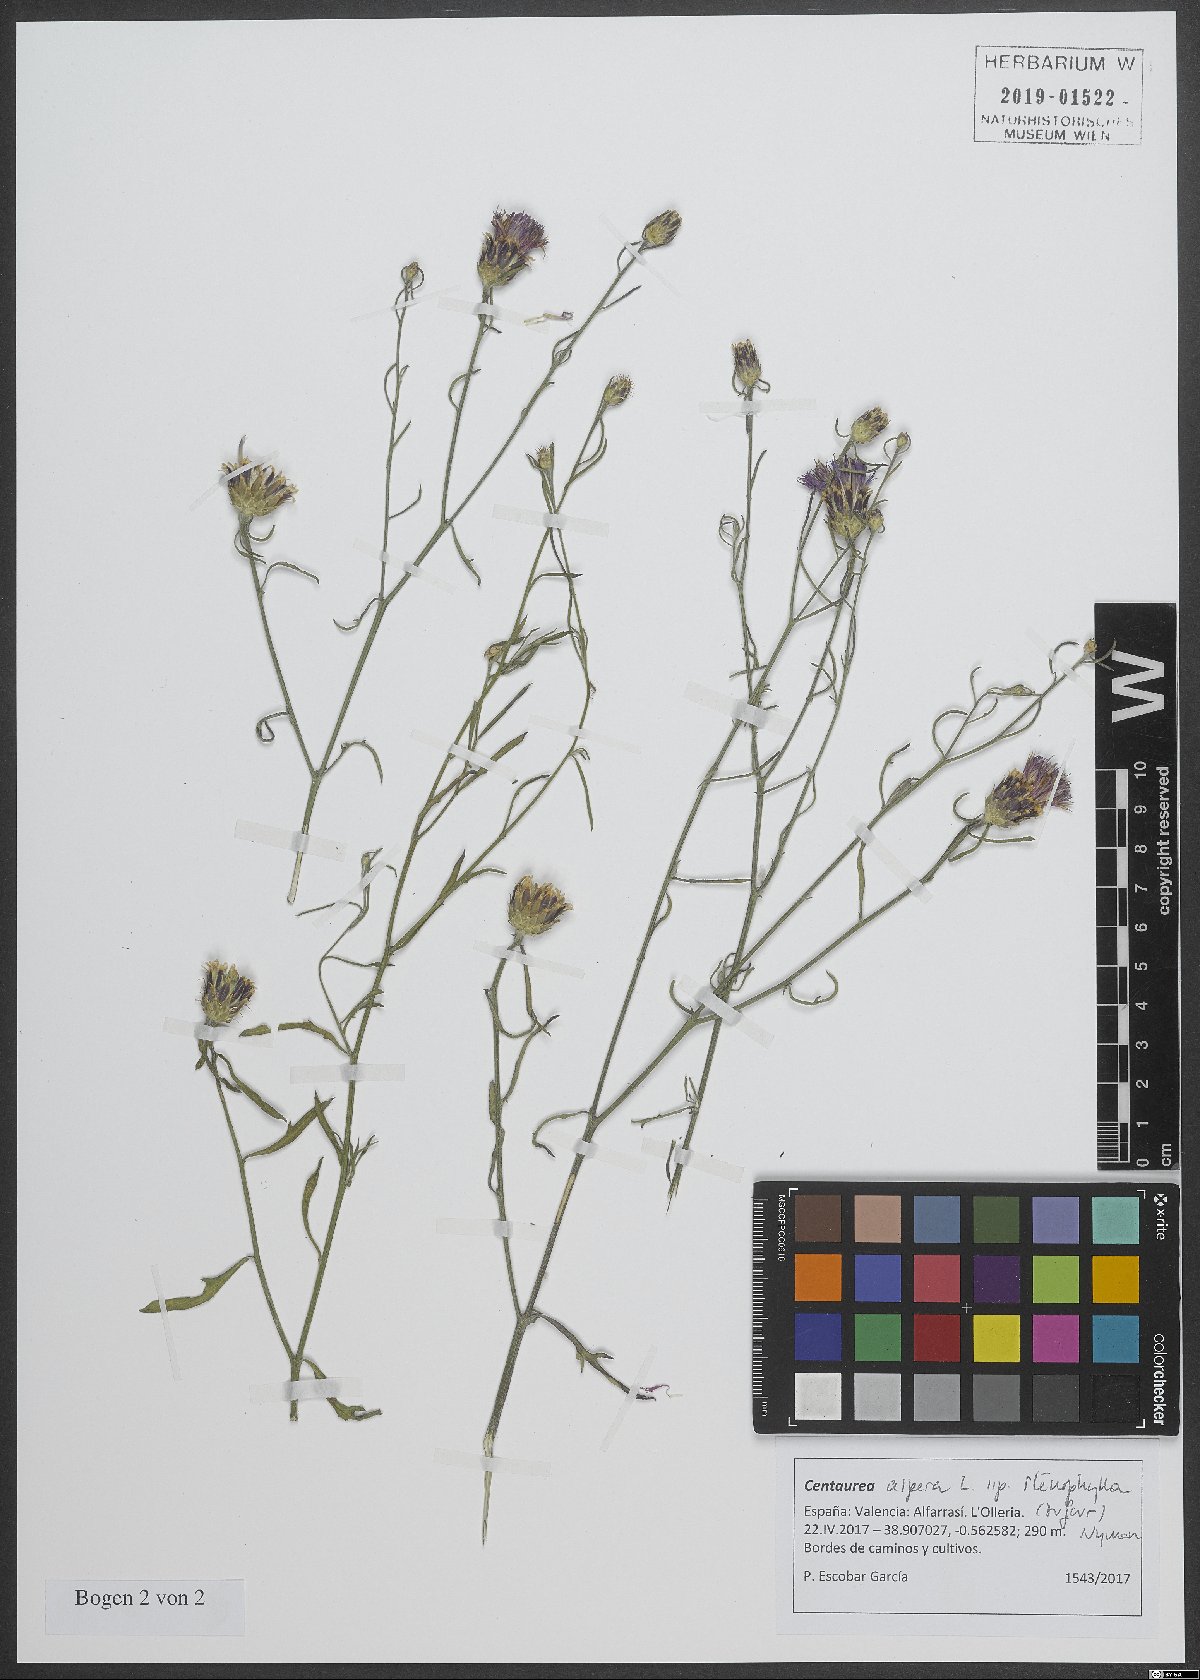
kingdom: Plantae
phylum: Tracheophyta
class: Magnoliopsida
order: Asterales
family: Asteraceae
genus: Centaurea
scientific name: Centaurea aspera
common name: Rough star-thistle
